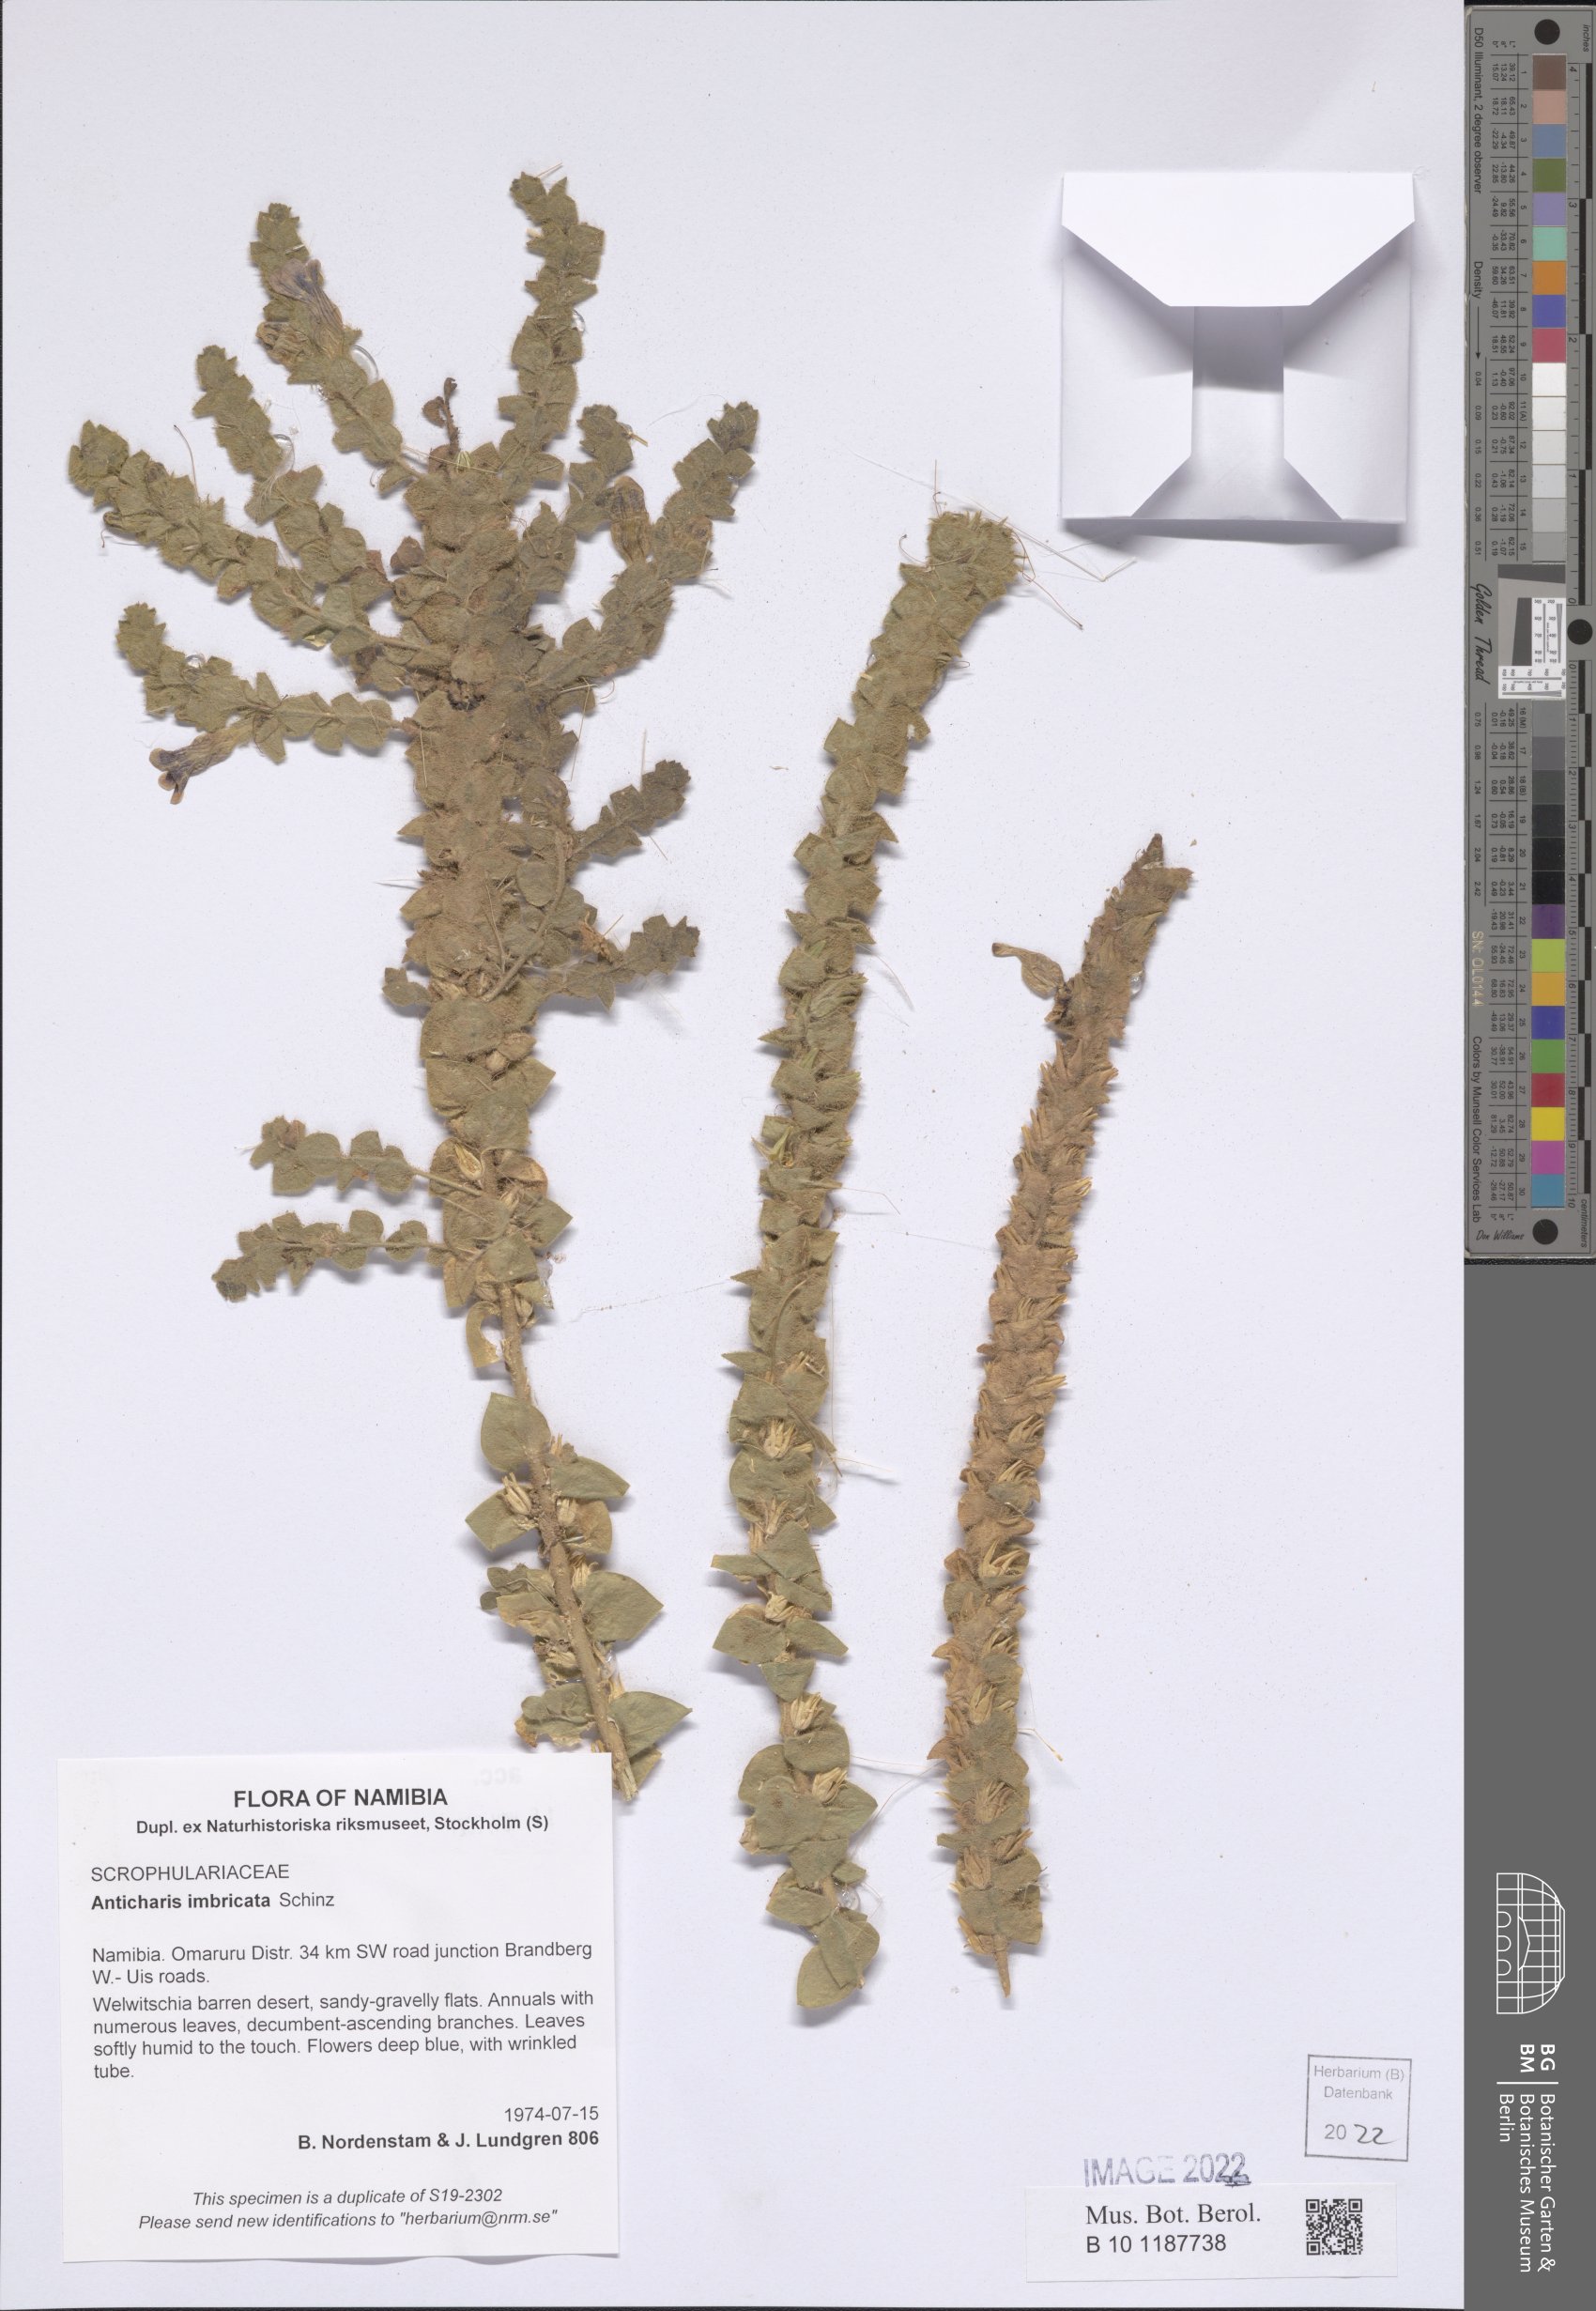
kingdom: Plantae
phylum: Tracheophyta
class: Magnoliopsida
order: Lamiales
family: Scrophulariaceae
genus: Anticharis
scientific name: Anticharis imbricata
